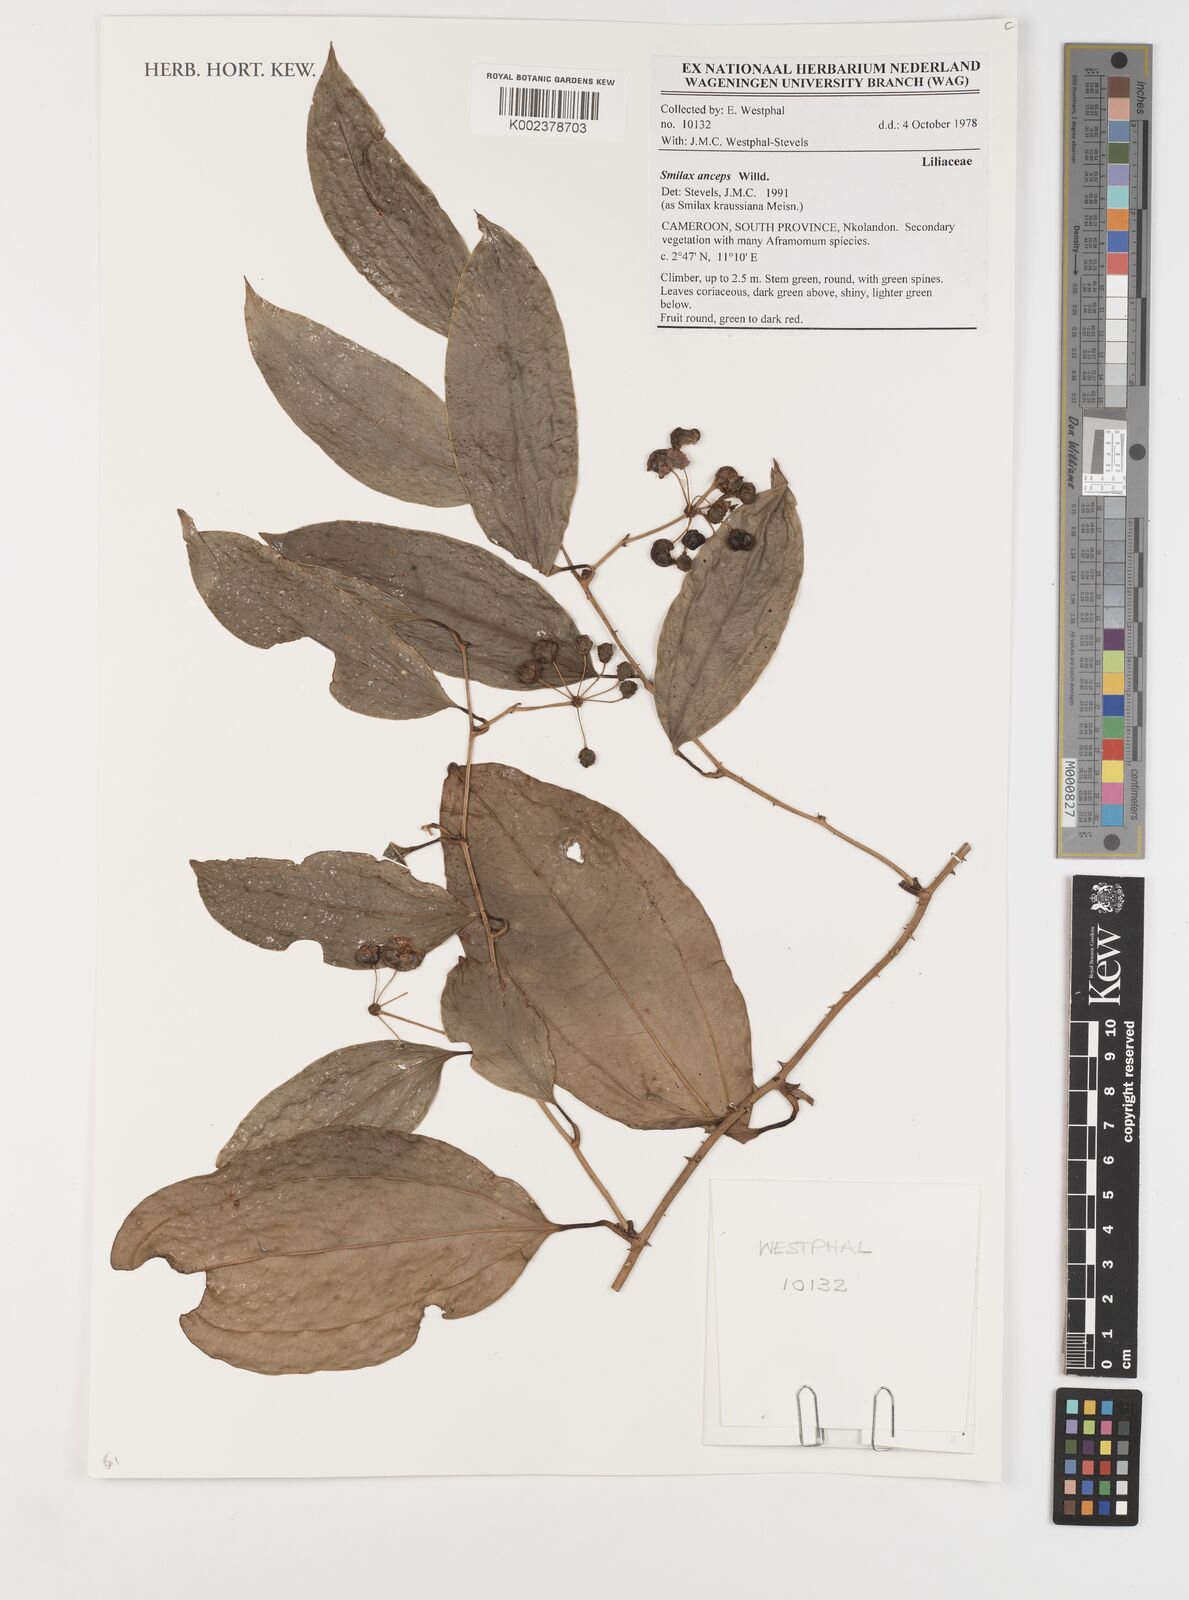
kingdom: Plantae
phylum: Tracheophyta
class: Liliopsida
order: Liliales
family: Smilacaceae
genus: Smilax
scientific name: Smilax anceps
